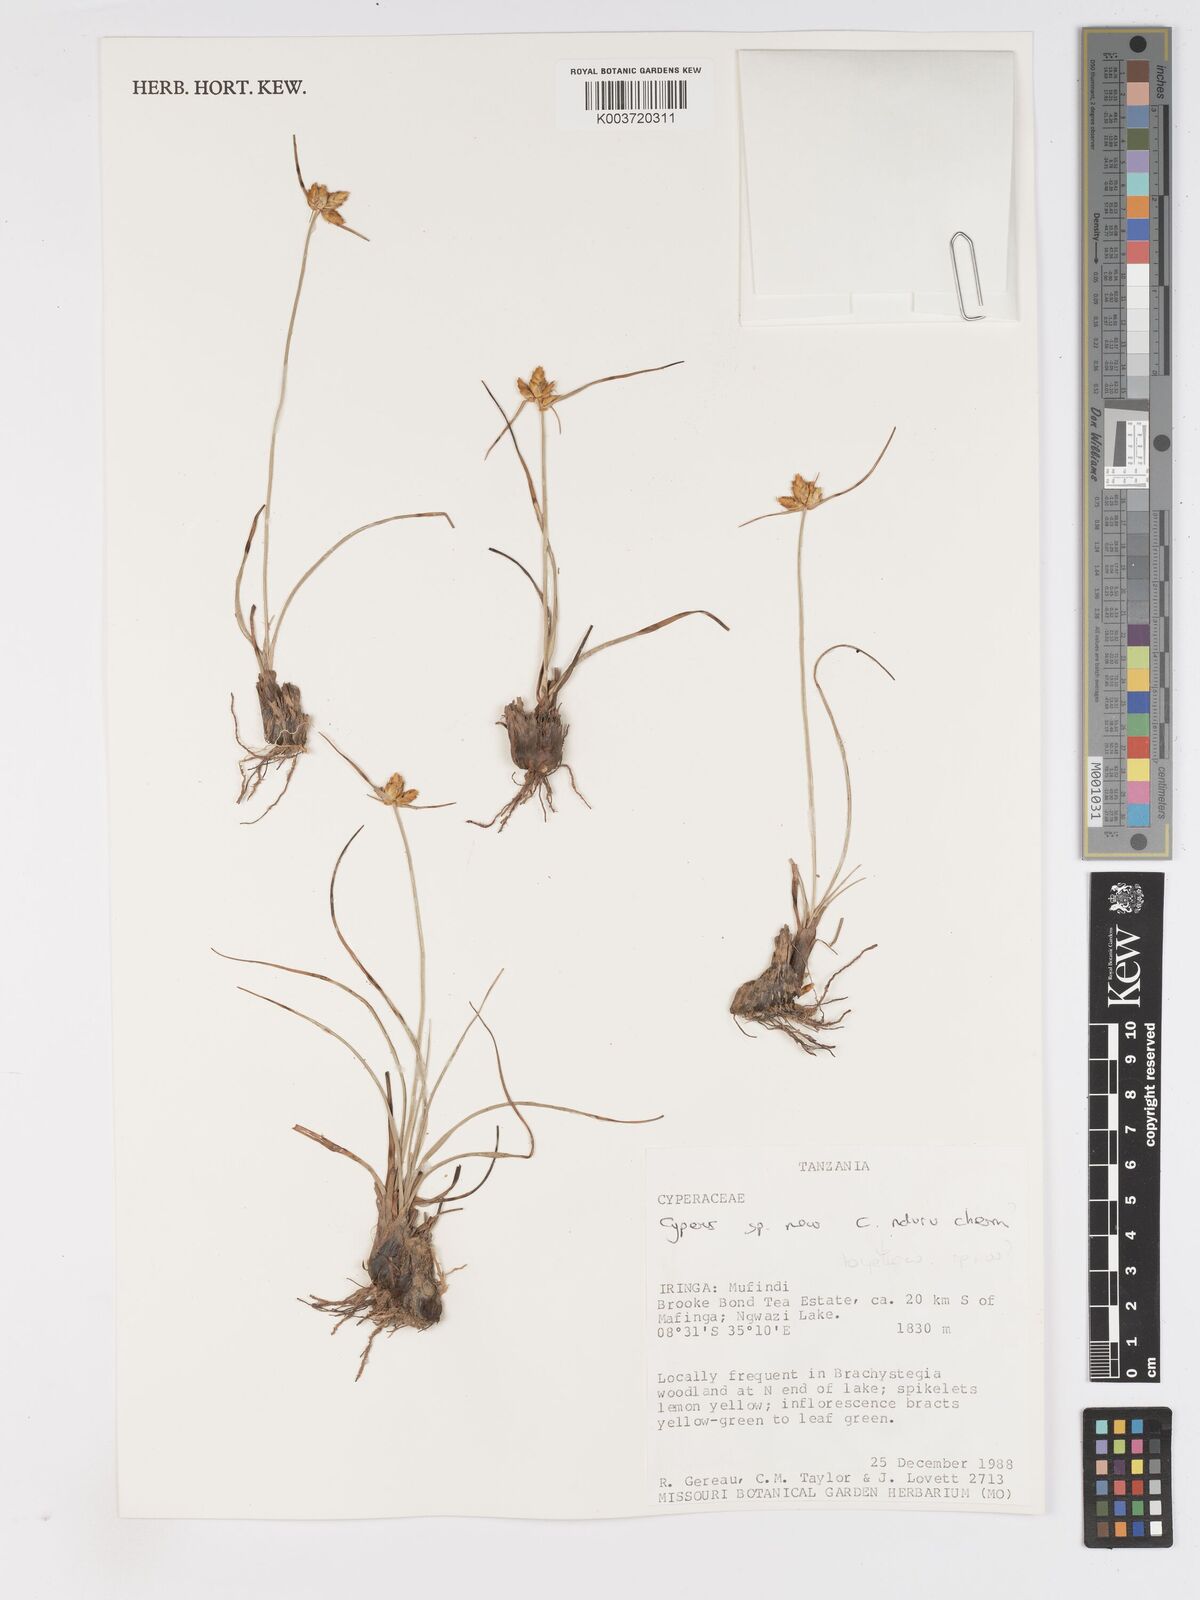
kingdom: Plantae
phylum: Tracheophyta
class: Liliopsida
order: Poales
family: Cyperaceae
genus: Cyperus
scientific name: Cyperus
